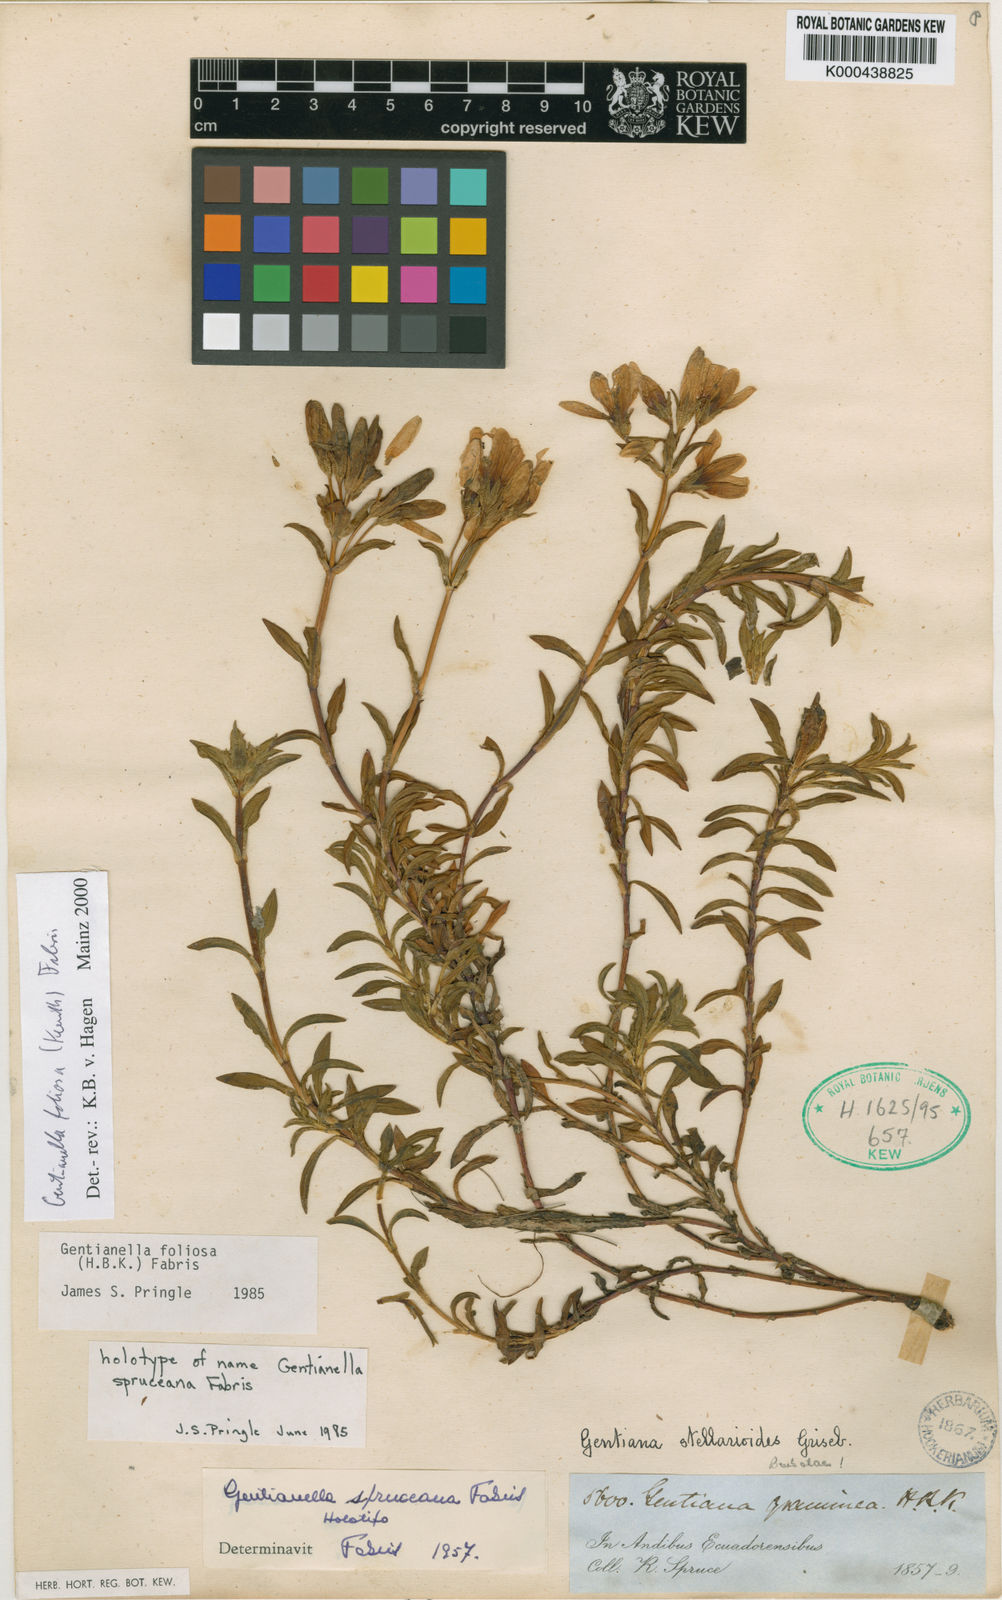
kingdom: Plantae
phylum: Tracheophyta
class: Magnoliopsida
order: Gentianales
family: Gentianaceae
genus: Gentianella
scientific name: Gentianella foliosa
